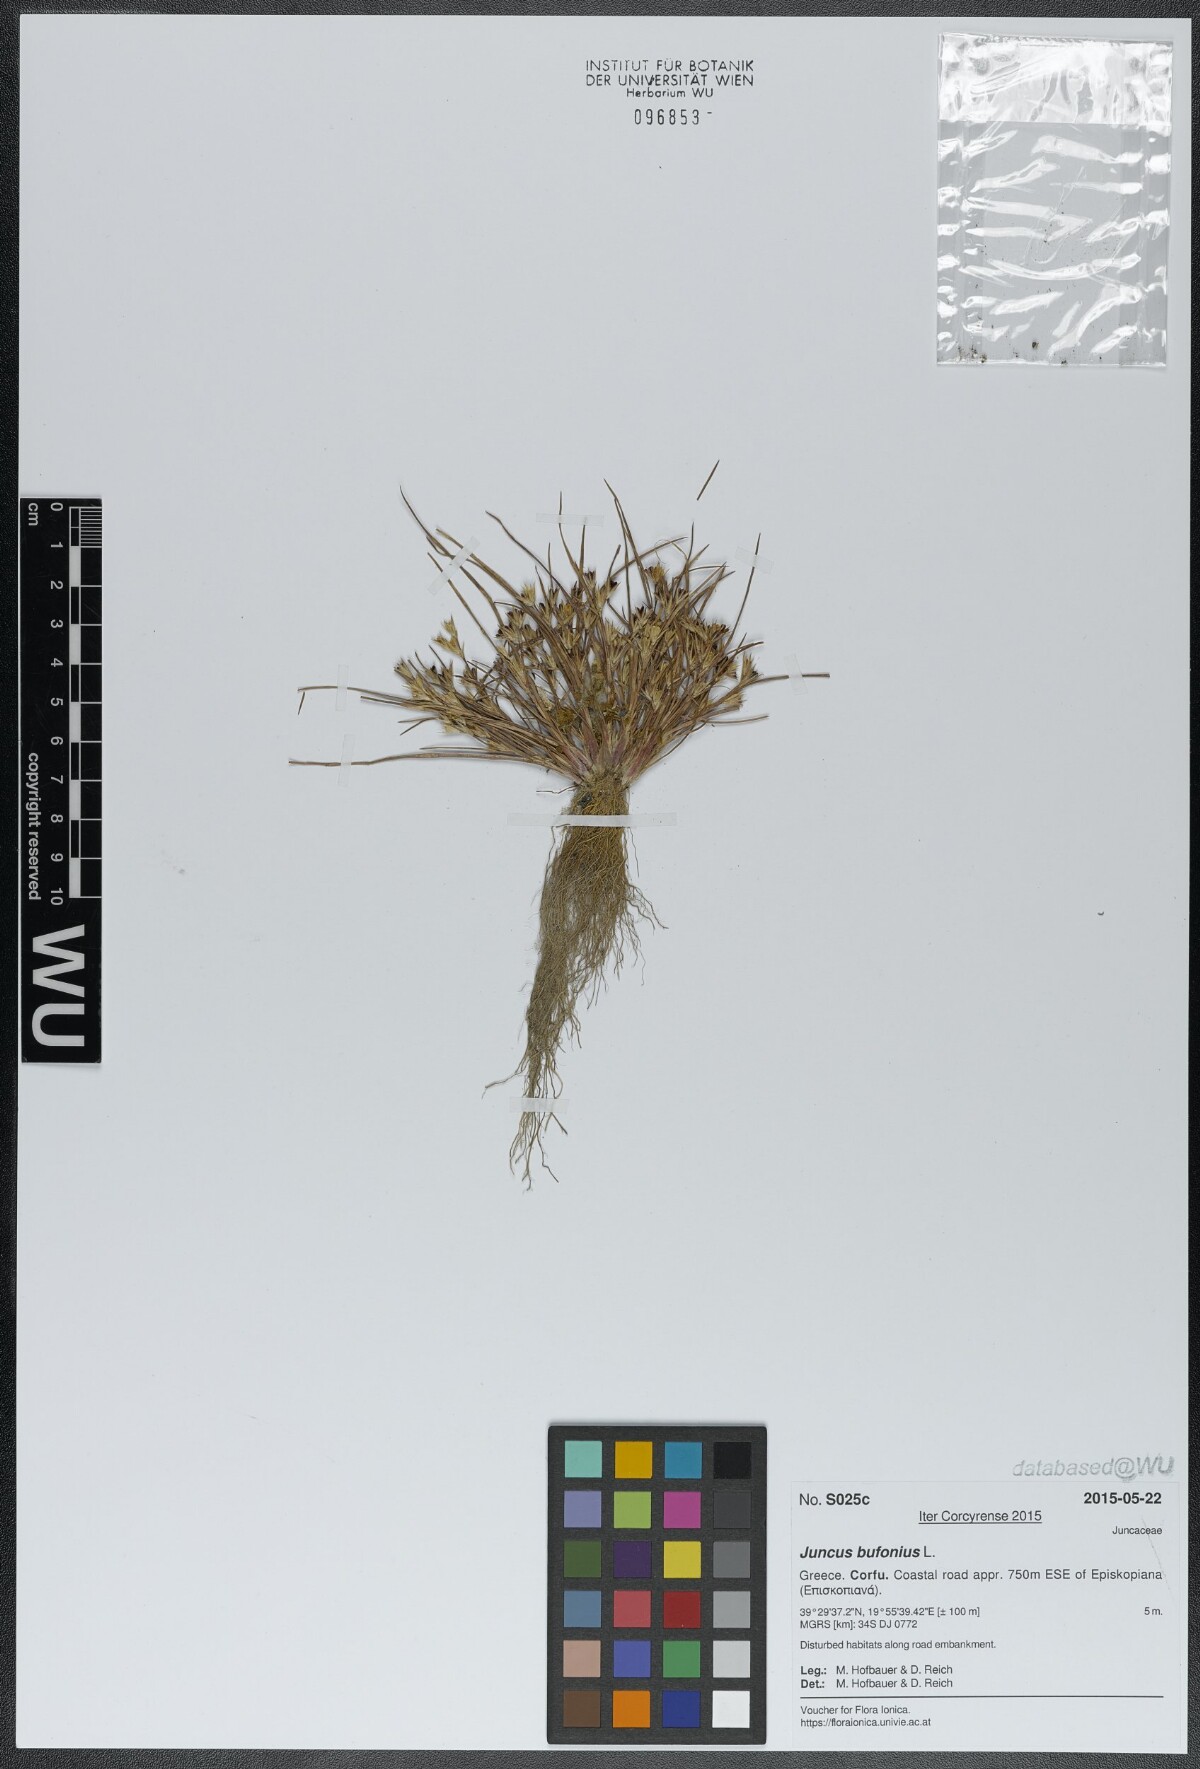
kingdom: Plantae
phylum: Tracheophyta
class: Liliopsida
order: Poales
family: Juncaceae
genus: Juncus
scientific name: Juncus bufonius
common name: Toad rush
